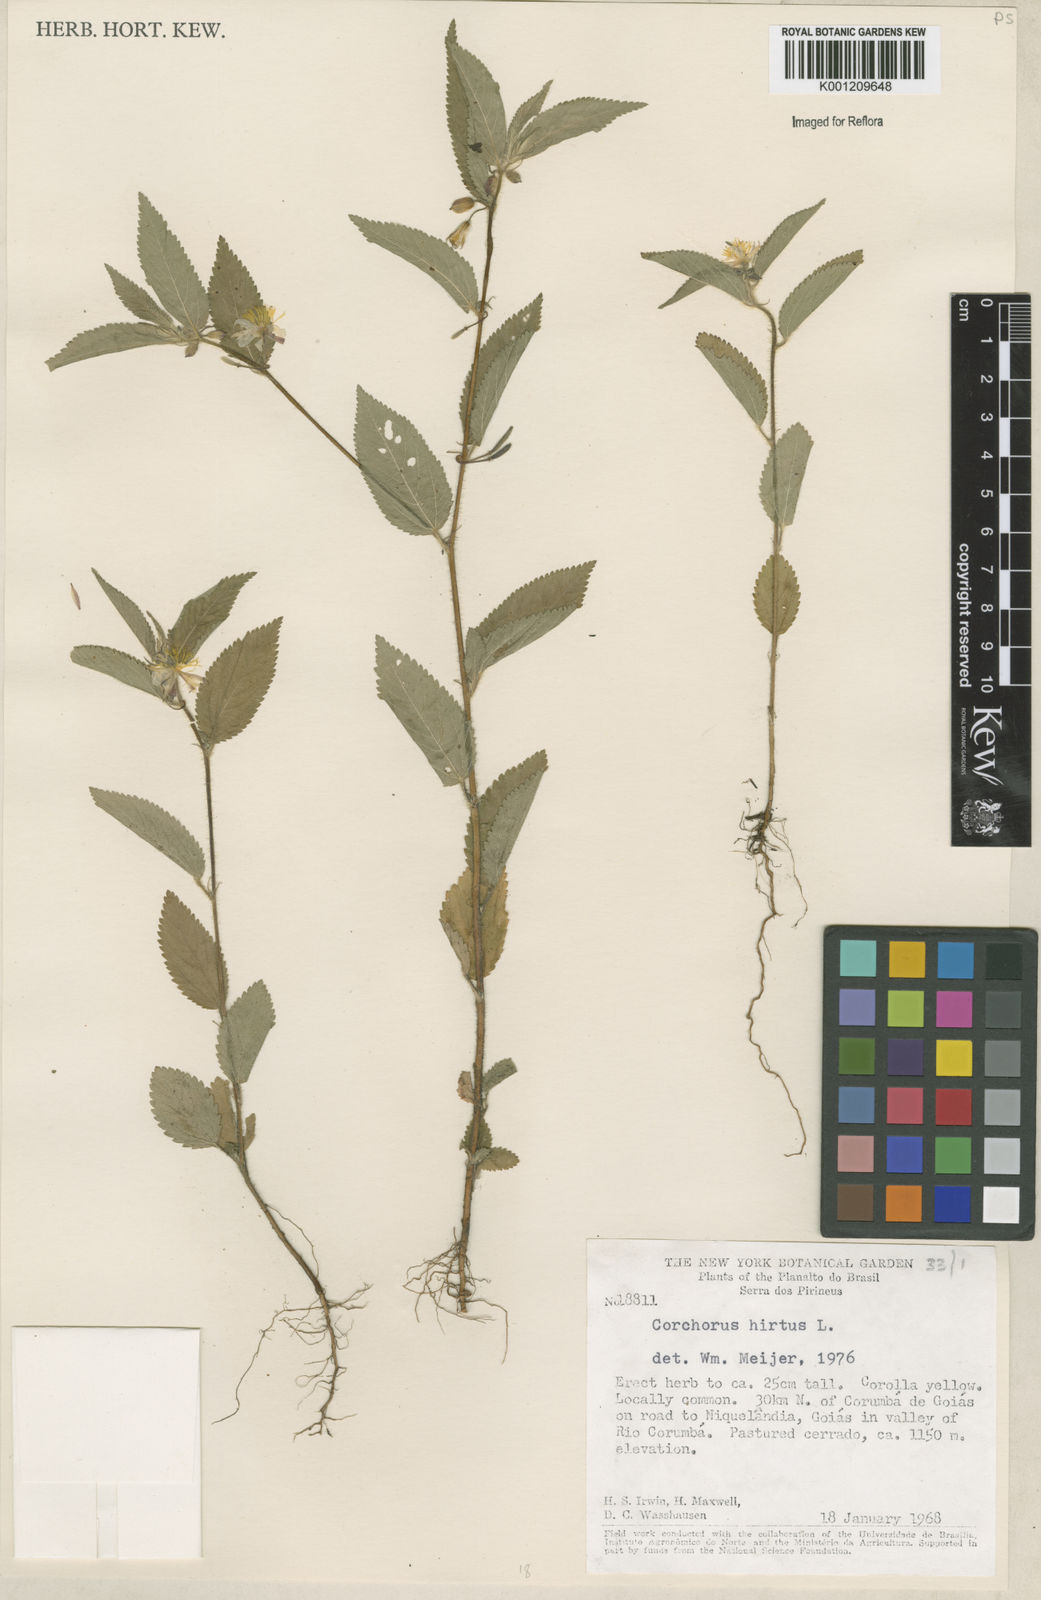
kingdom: Plantae
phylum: Tracheophyta
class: Magnoliopsida
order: Malvales
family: Malvaceae
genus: Corchorus
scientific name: Corchorus hirtus
